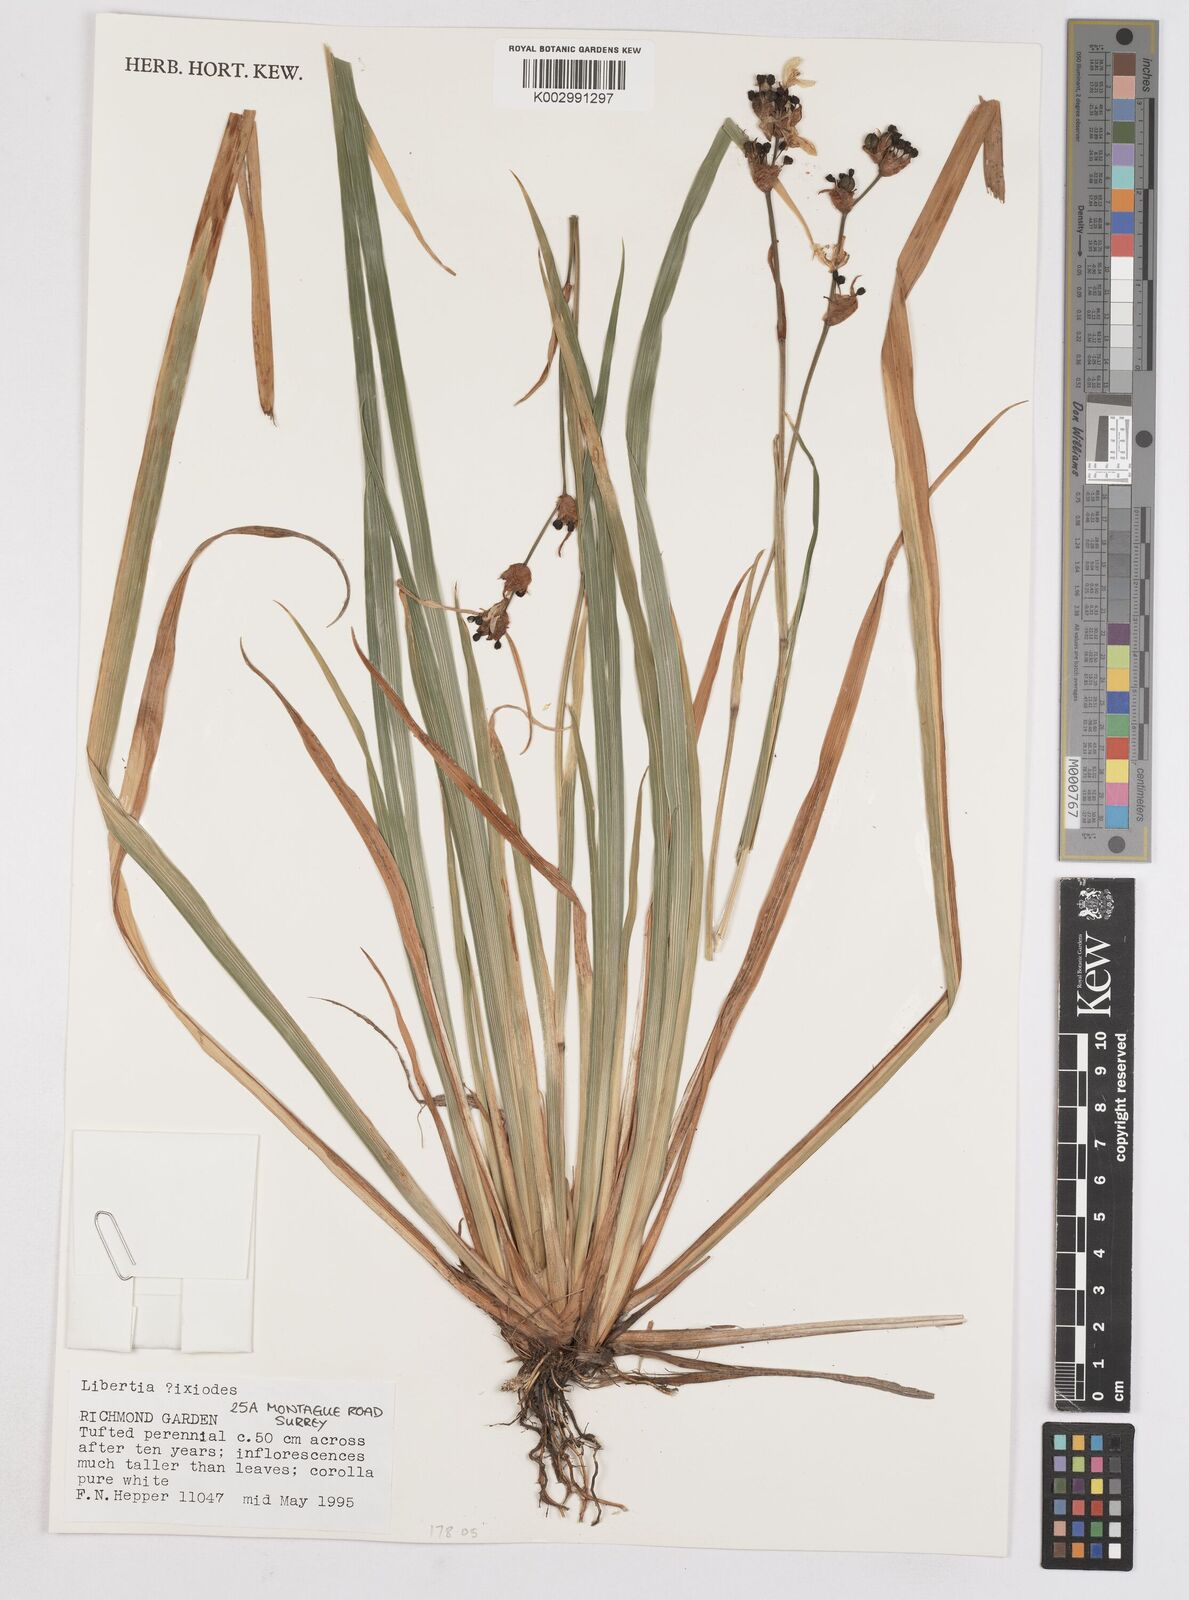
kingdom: Plantae
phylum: Tracheophyta
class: Liliopsida
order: Asparagales
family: Iridaceae
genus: Libertia
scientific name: Libertia chilensis
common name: Satin flower
